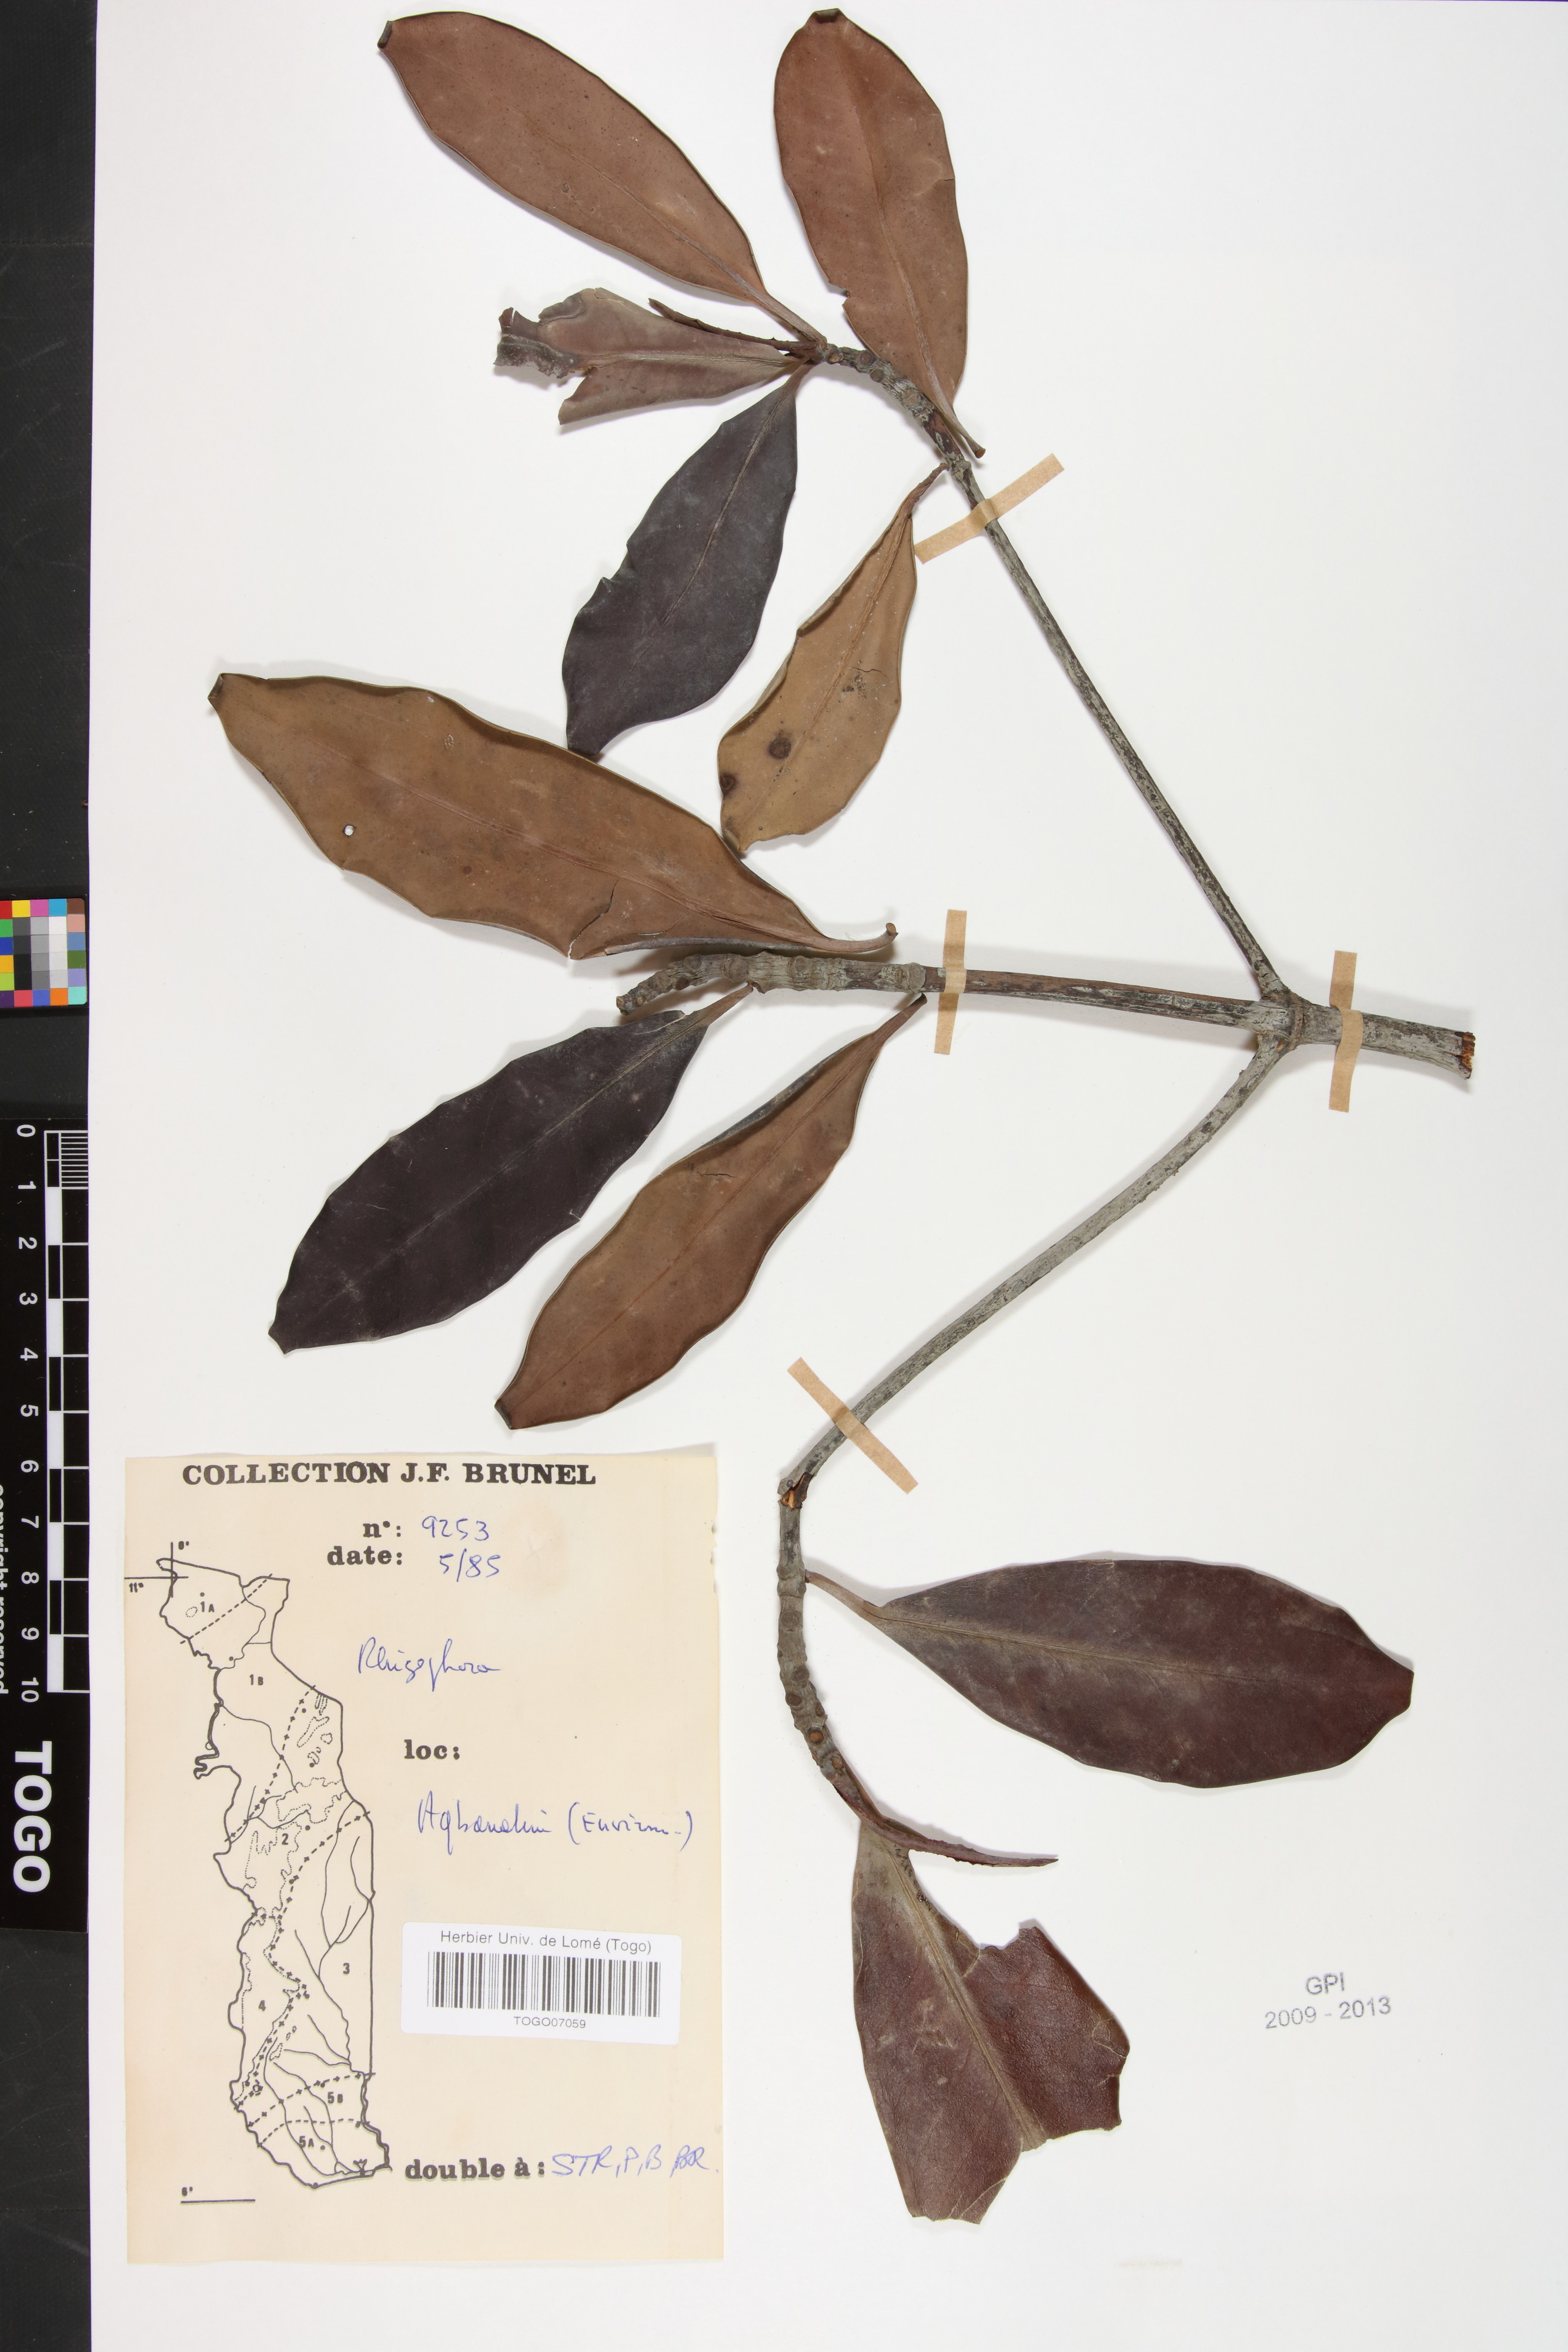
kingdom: Plantae
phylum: Tracheophyta
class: Magnoliopsida
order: Malpighiales
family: Rhizophoraceae
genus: Rhizophora
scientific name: Rhizophora racemosa
